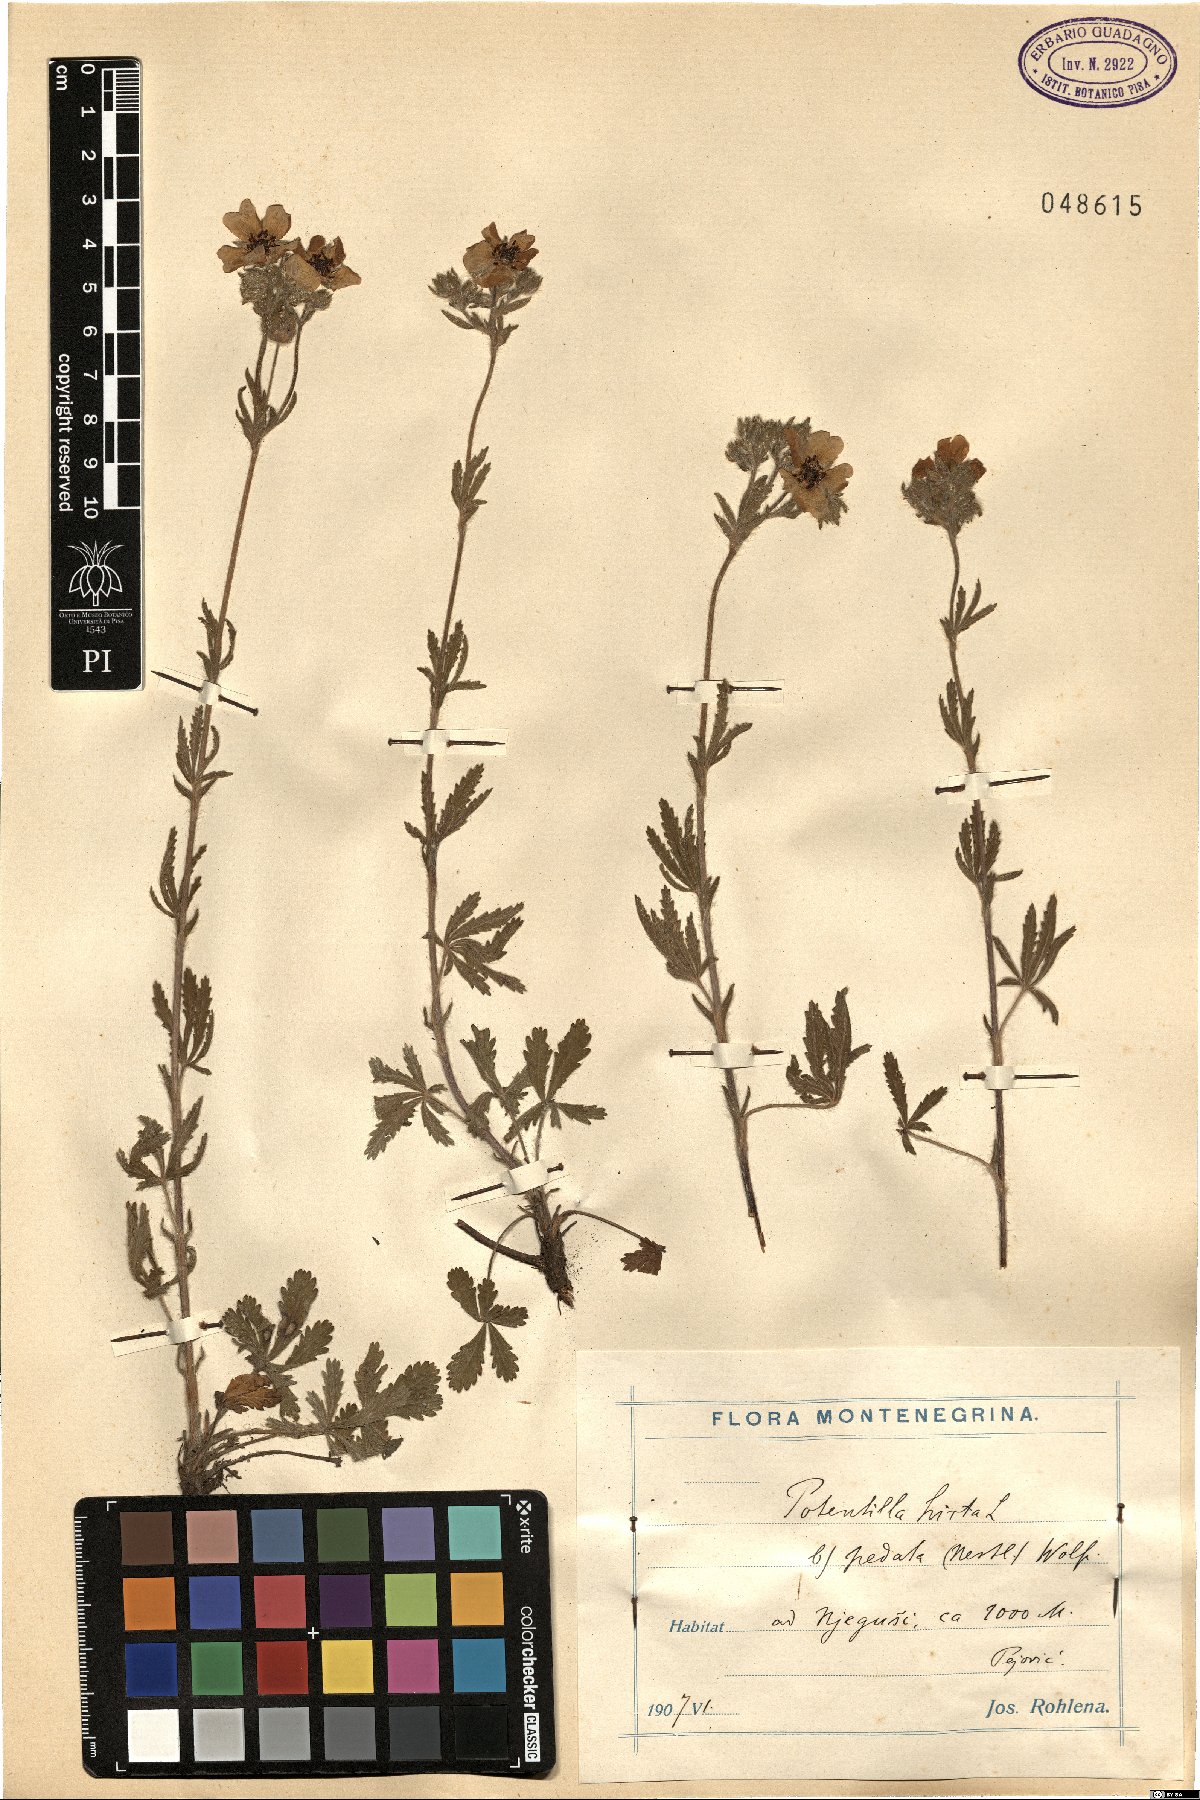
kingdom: Plantae
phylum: Tracheophyta
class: Magnoliopsida
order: Rosales
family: Rosaceae
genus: Potentilla
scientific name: Potentilla pedata
